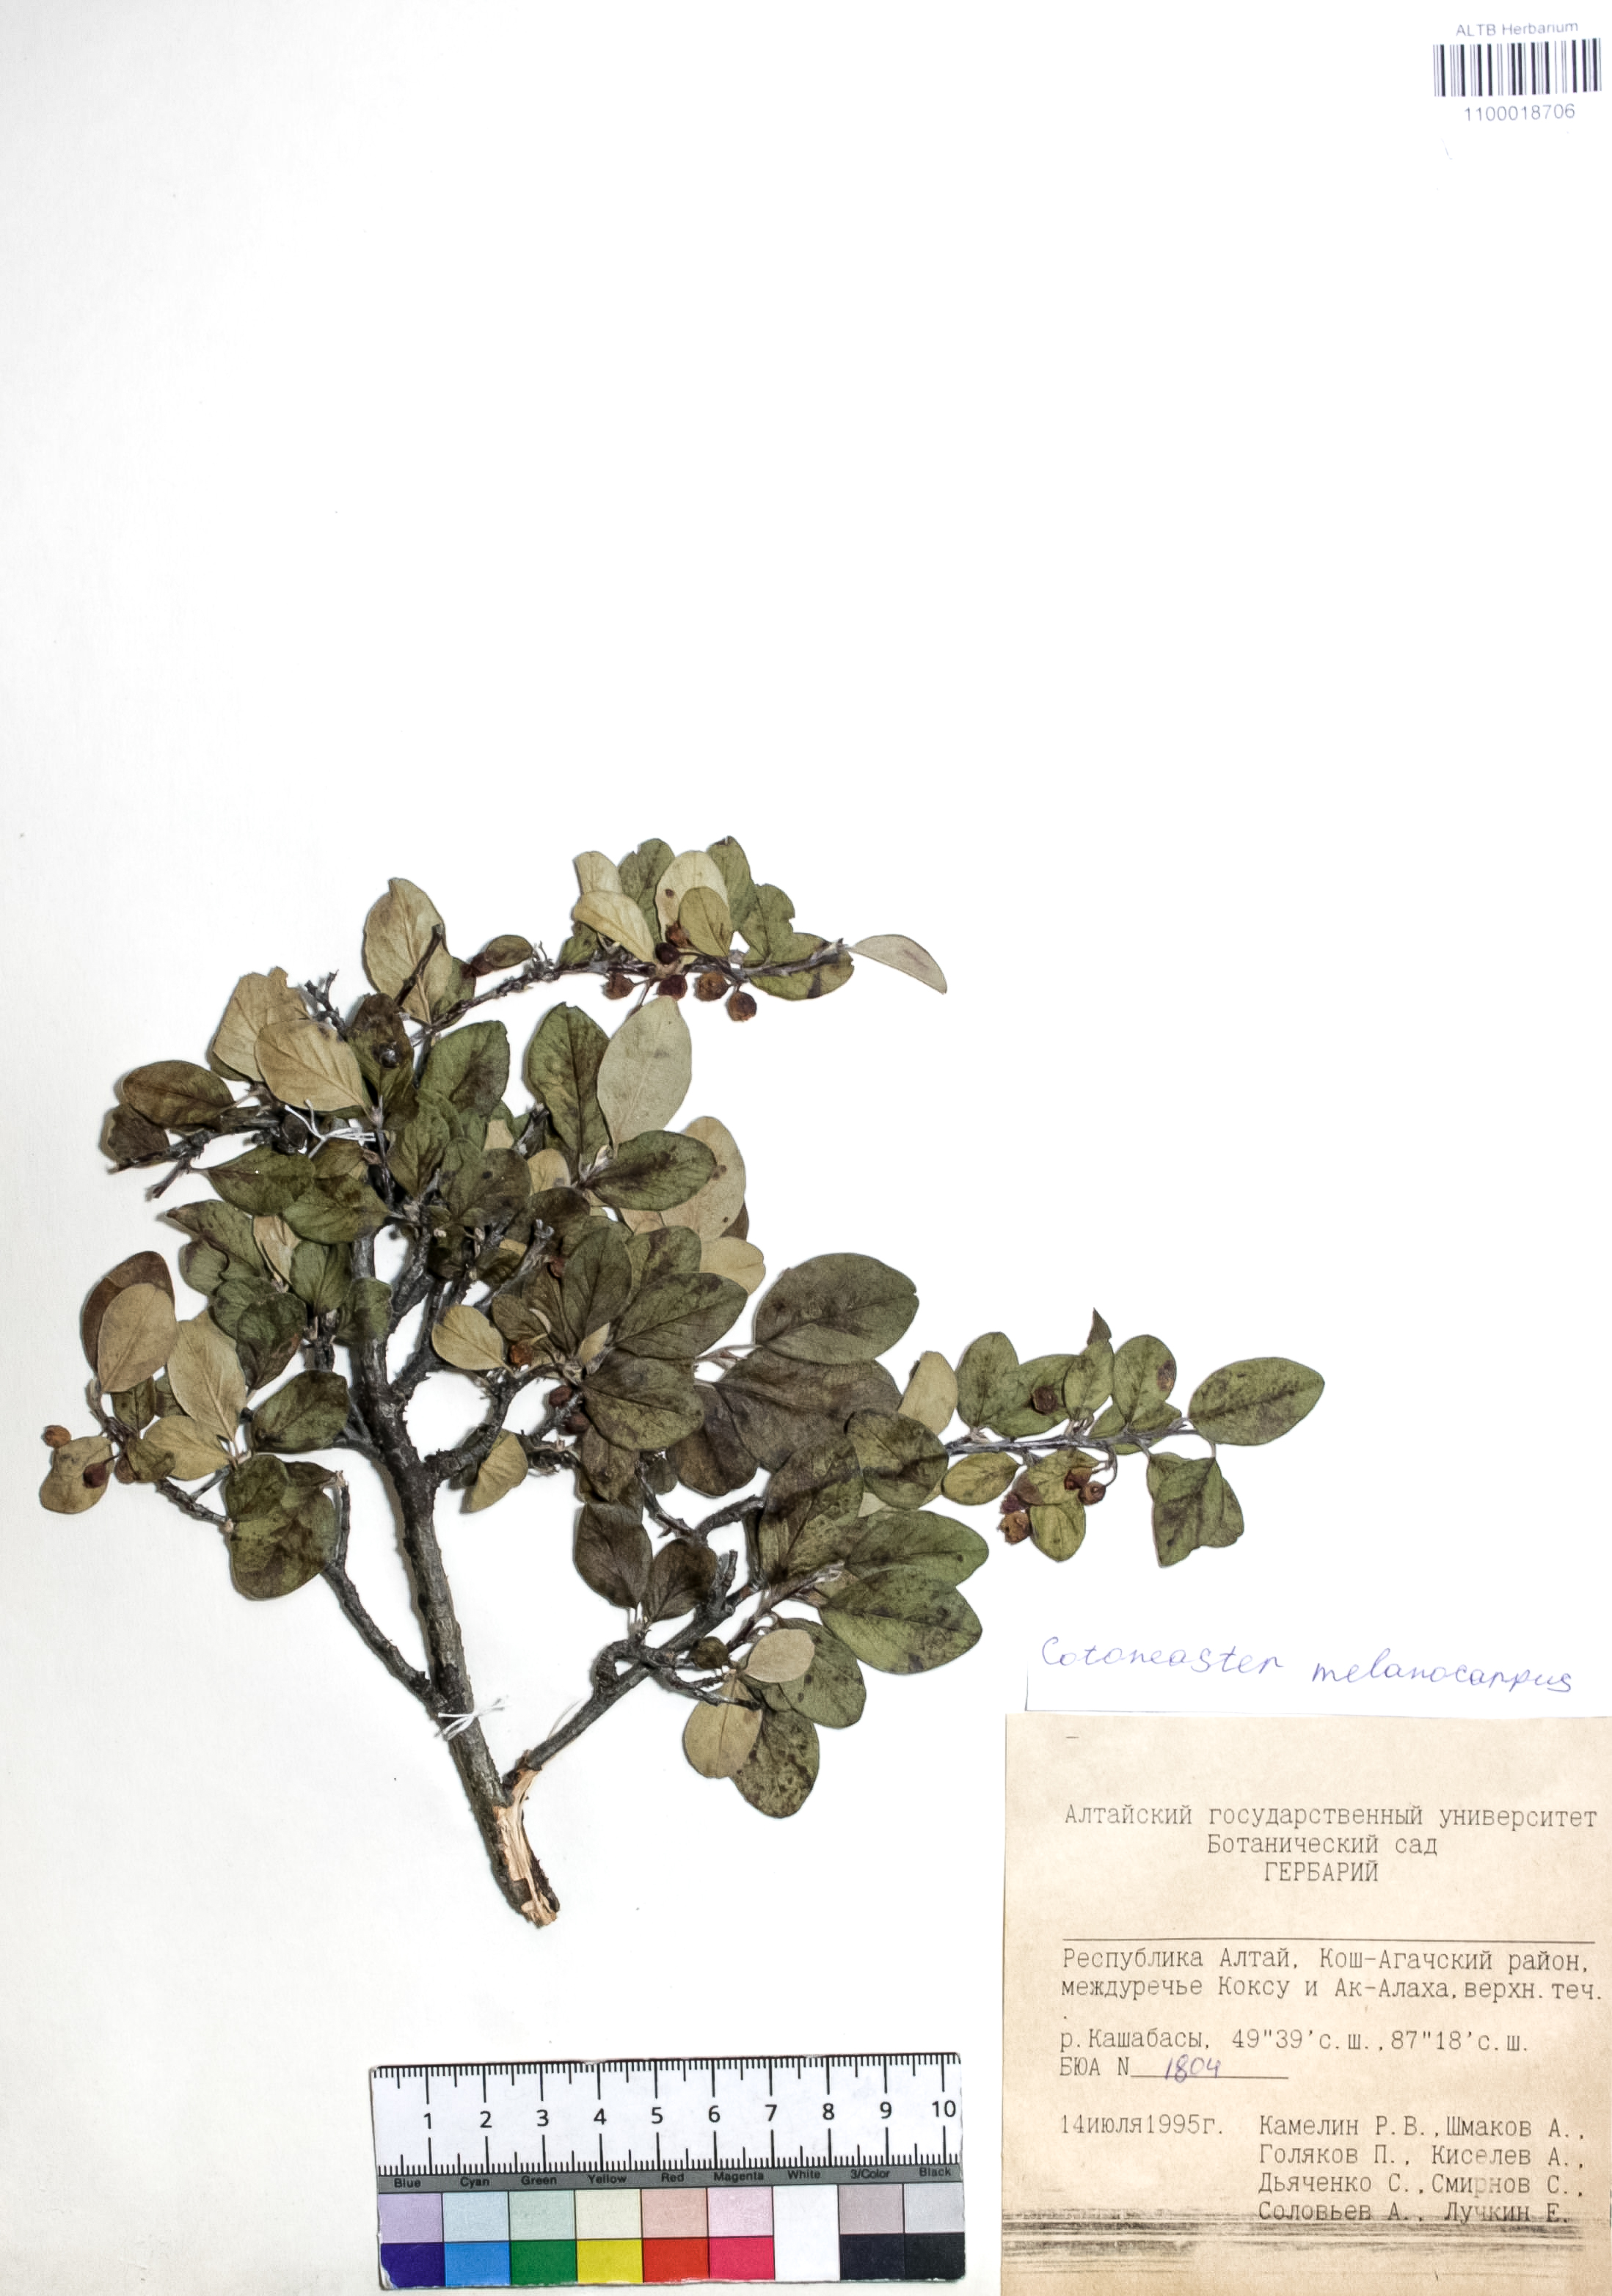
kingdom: Plantae
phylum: Tracheophyta
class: Magnoliopsida
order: Rosales
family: Rosaceae
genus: Cotoneaster
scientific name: Cotoneaster niger
